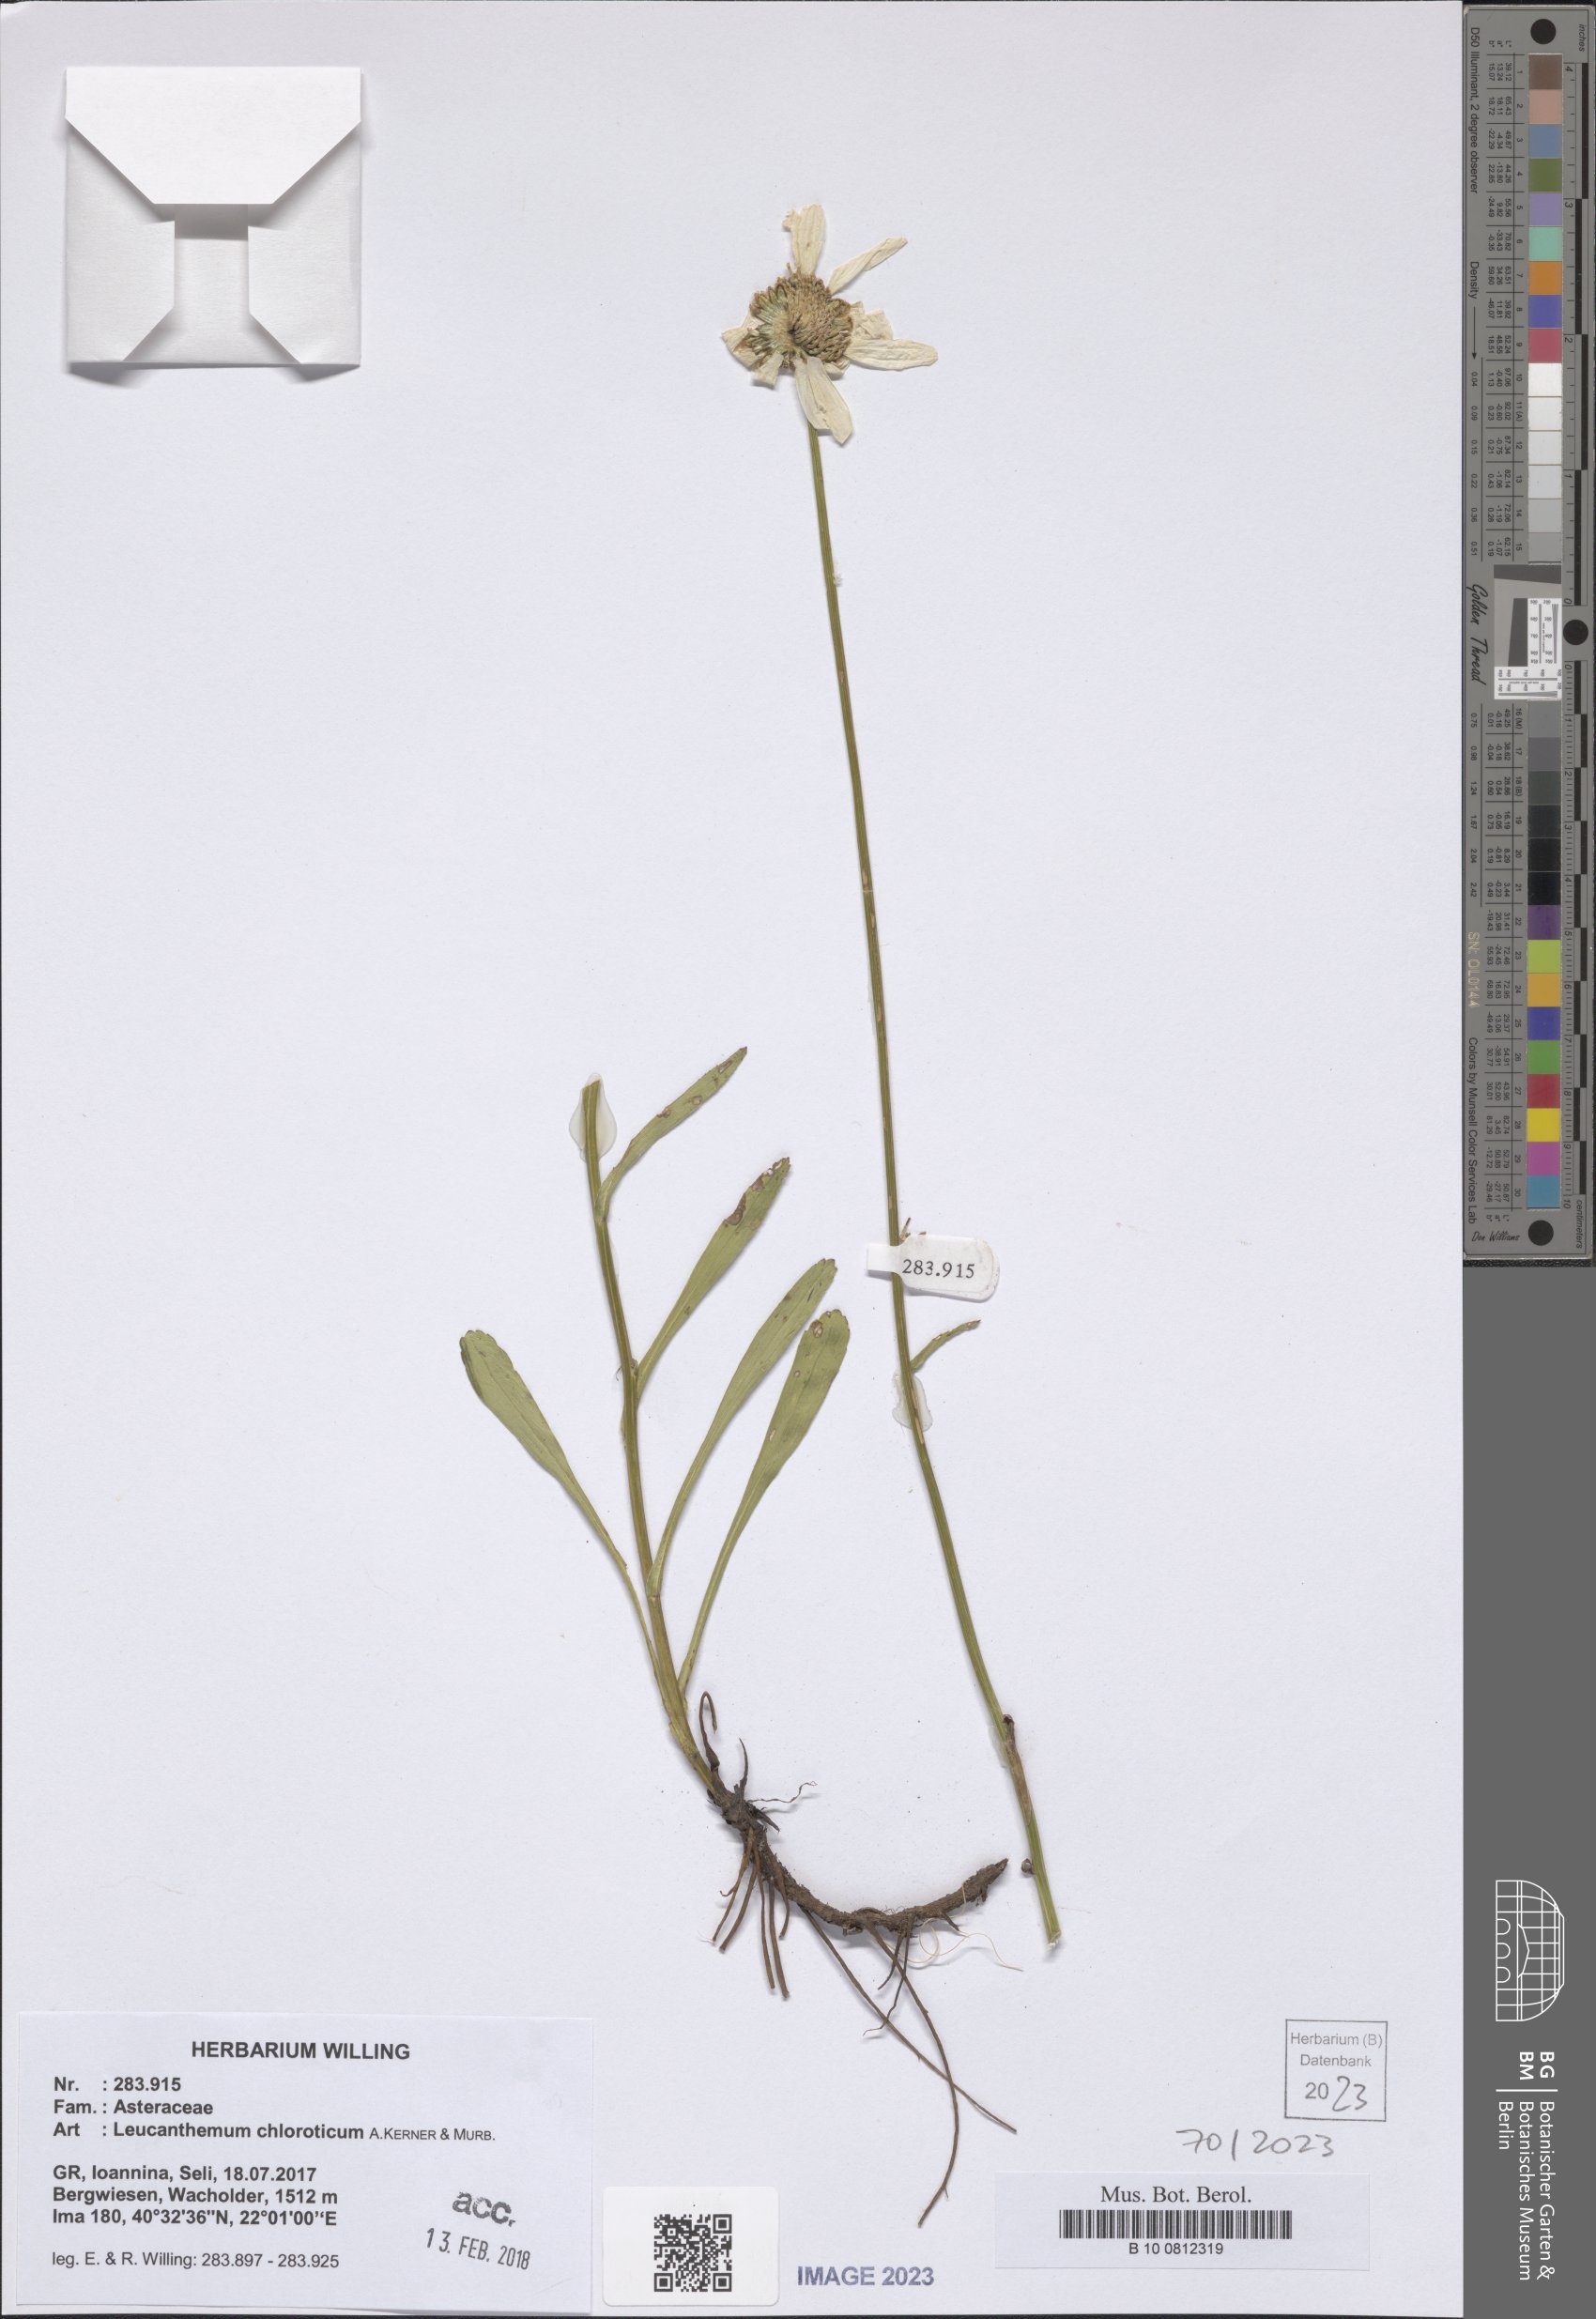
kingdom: Plantae
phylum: Tracheophyta
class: Magnoliopsida
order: Asterales
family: Asteraceae
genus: Leucanthemum
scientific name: Leucanthemum chloroticum
